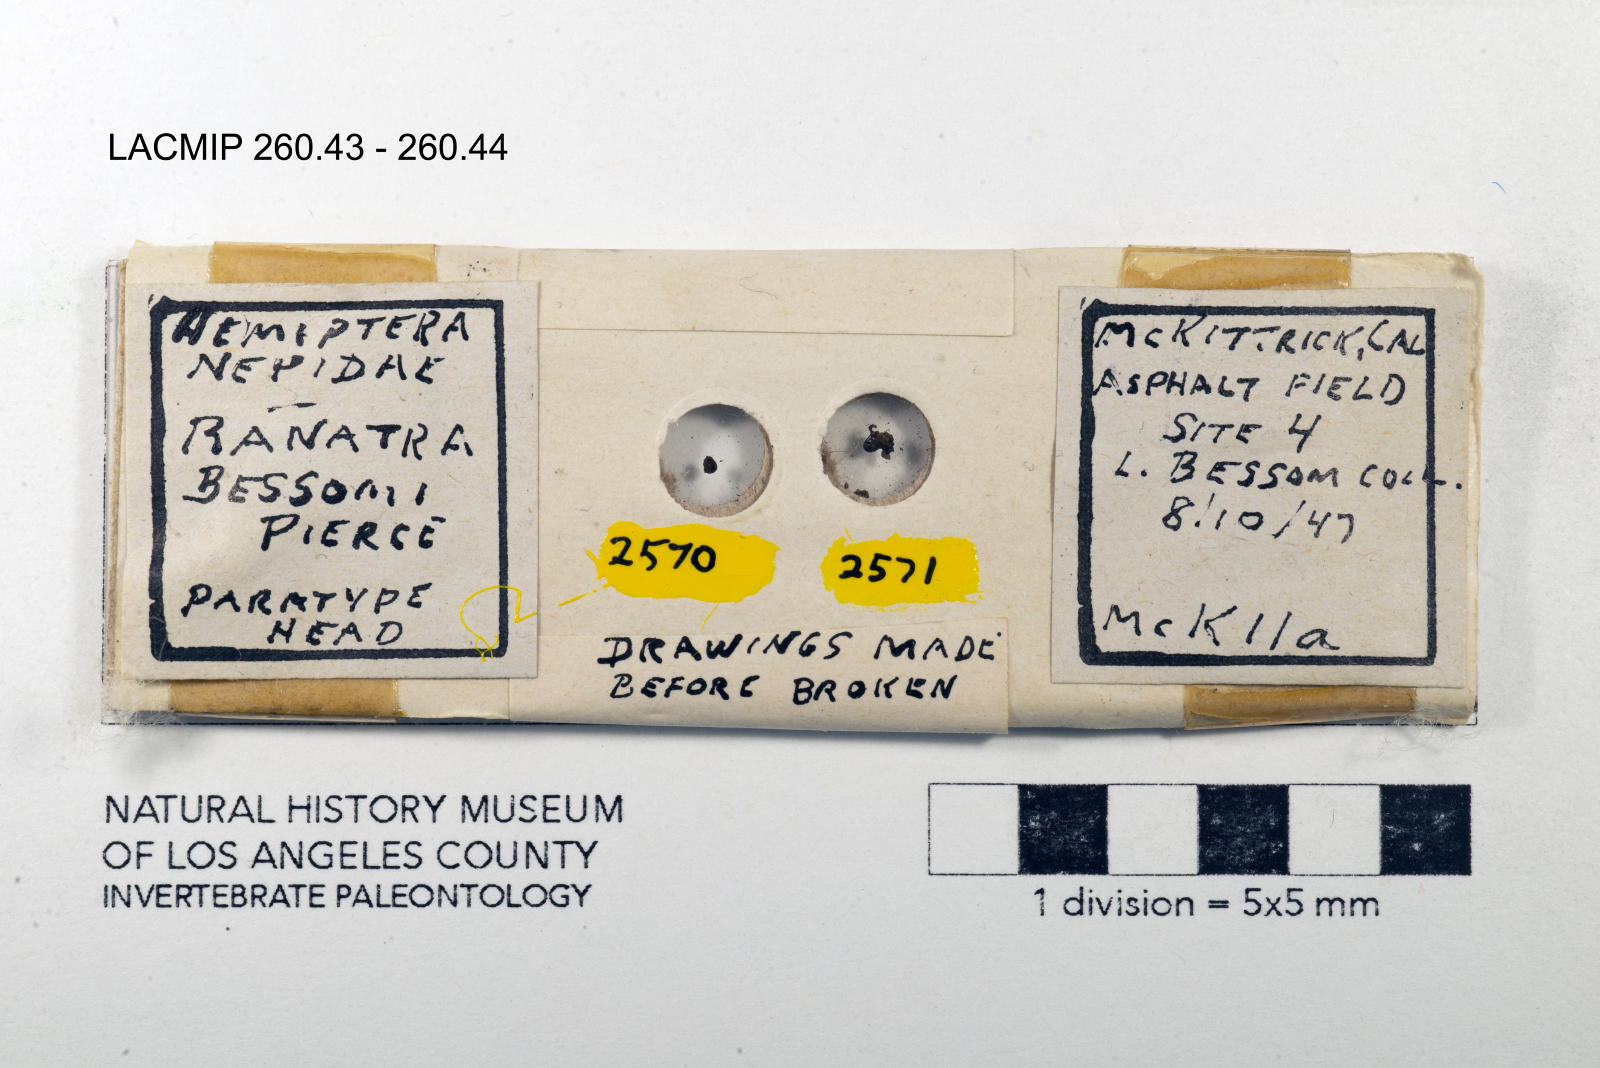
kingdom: Animalia
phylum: Arthropoda
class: Insecta
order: Hemiptera
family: Nepidae
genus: Ranatra
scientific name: Ranatra fusca
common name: Brown waterscorpion
